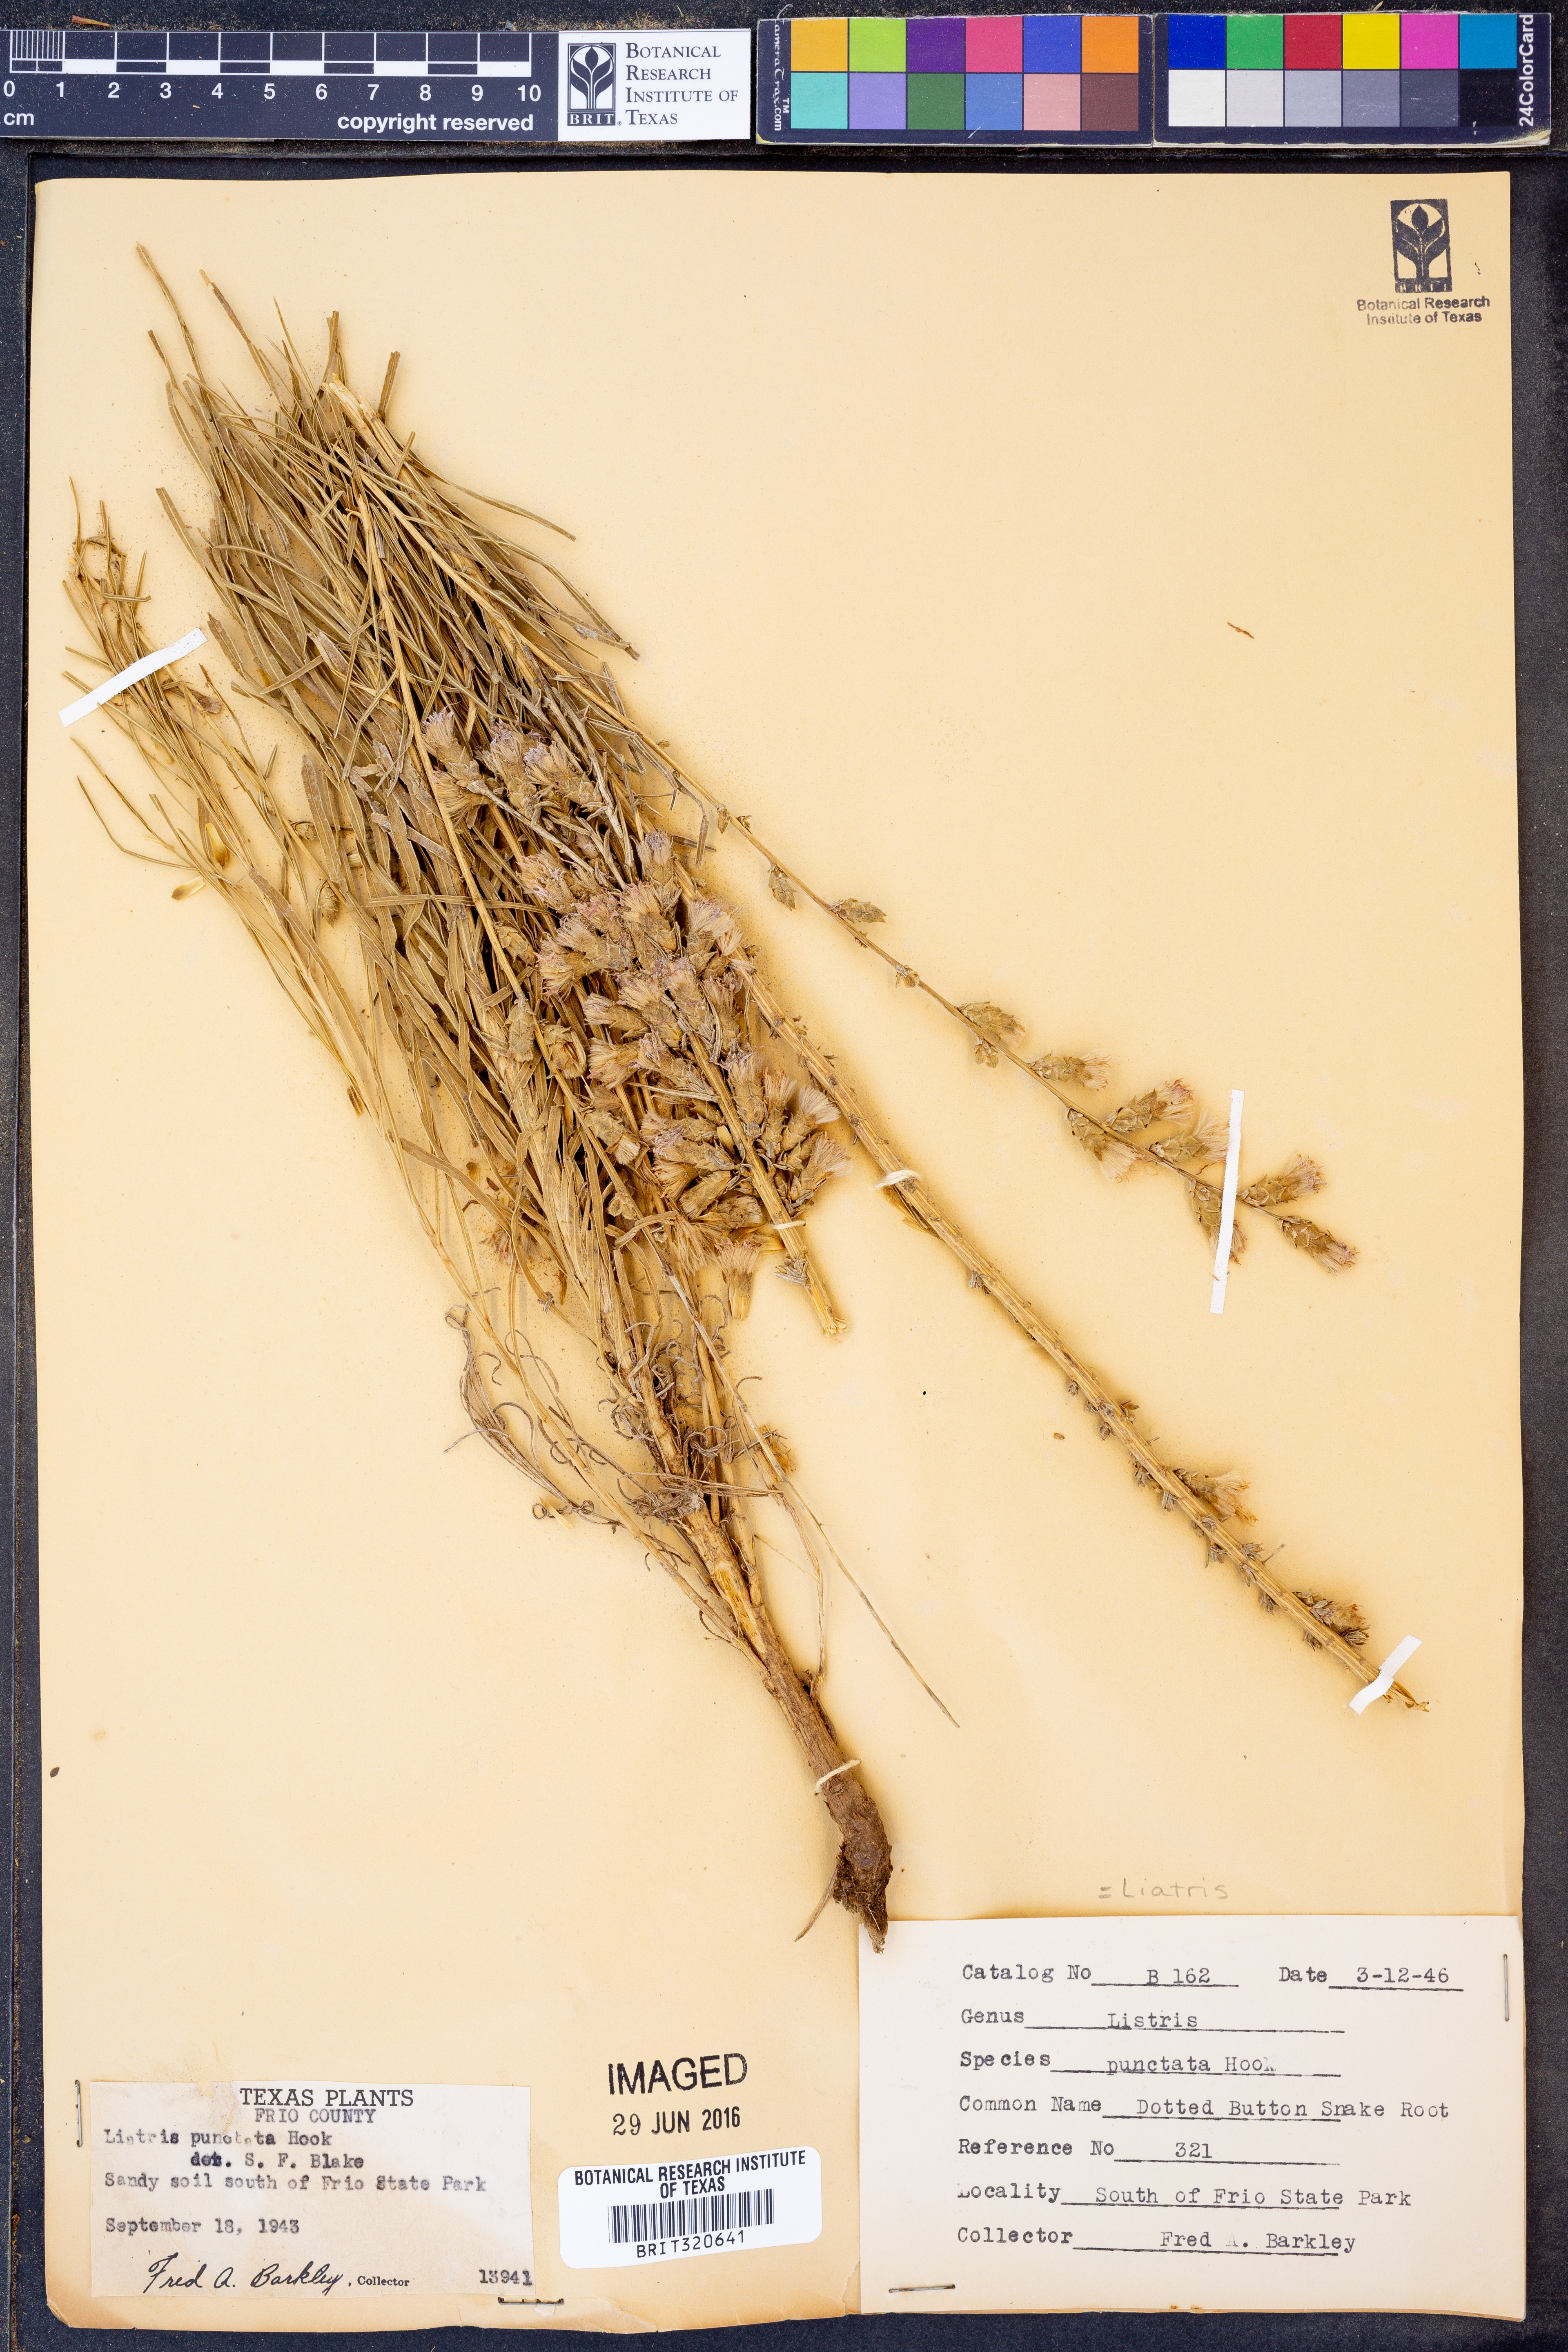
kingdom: Plantae
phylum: Tracheophyta
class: Magnoliopsida
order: Asterales
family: Asteraceae
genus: Liatris
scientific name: Liatris punctata
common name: Dotted gayfeather
